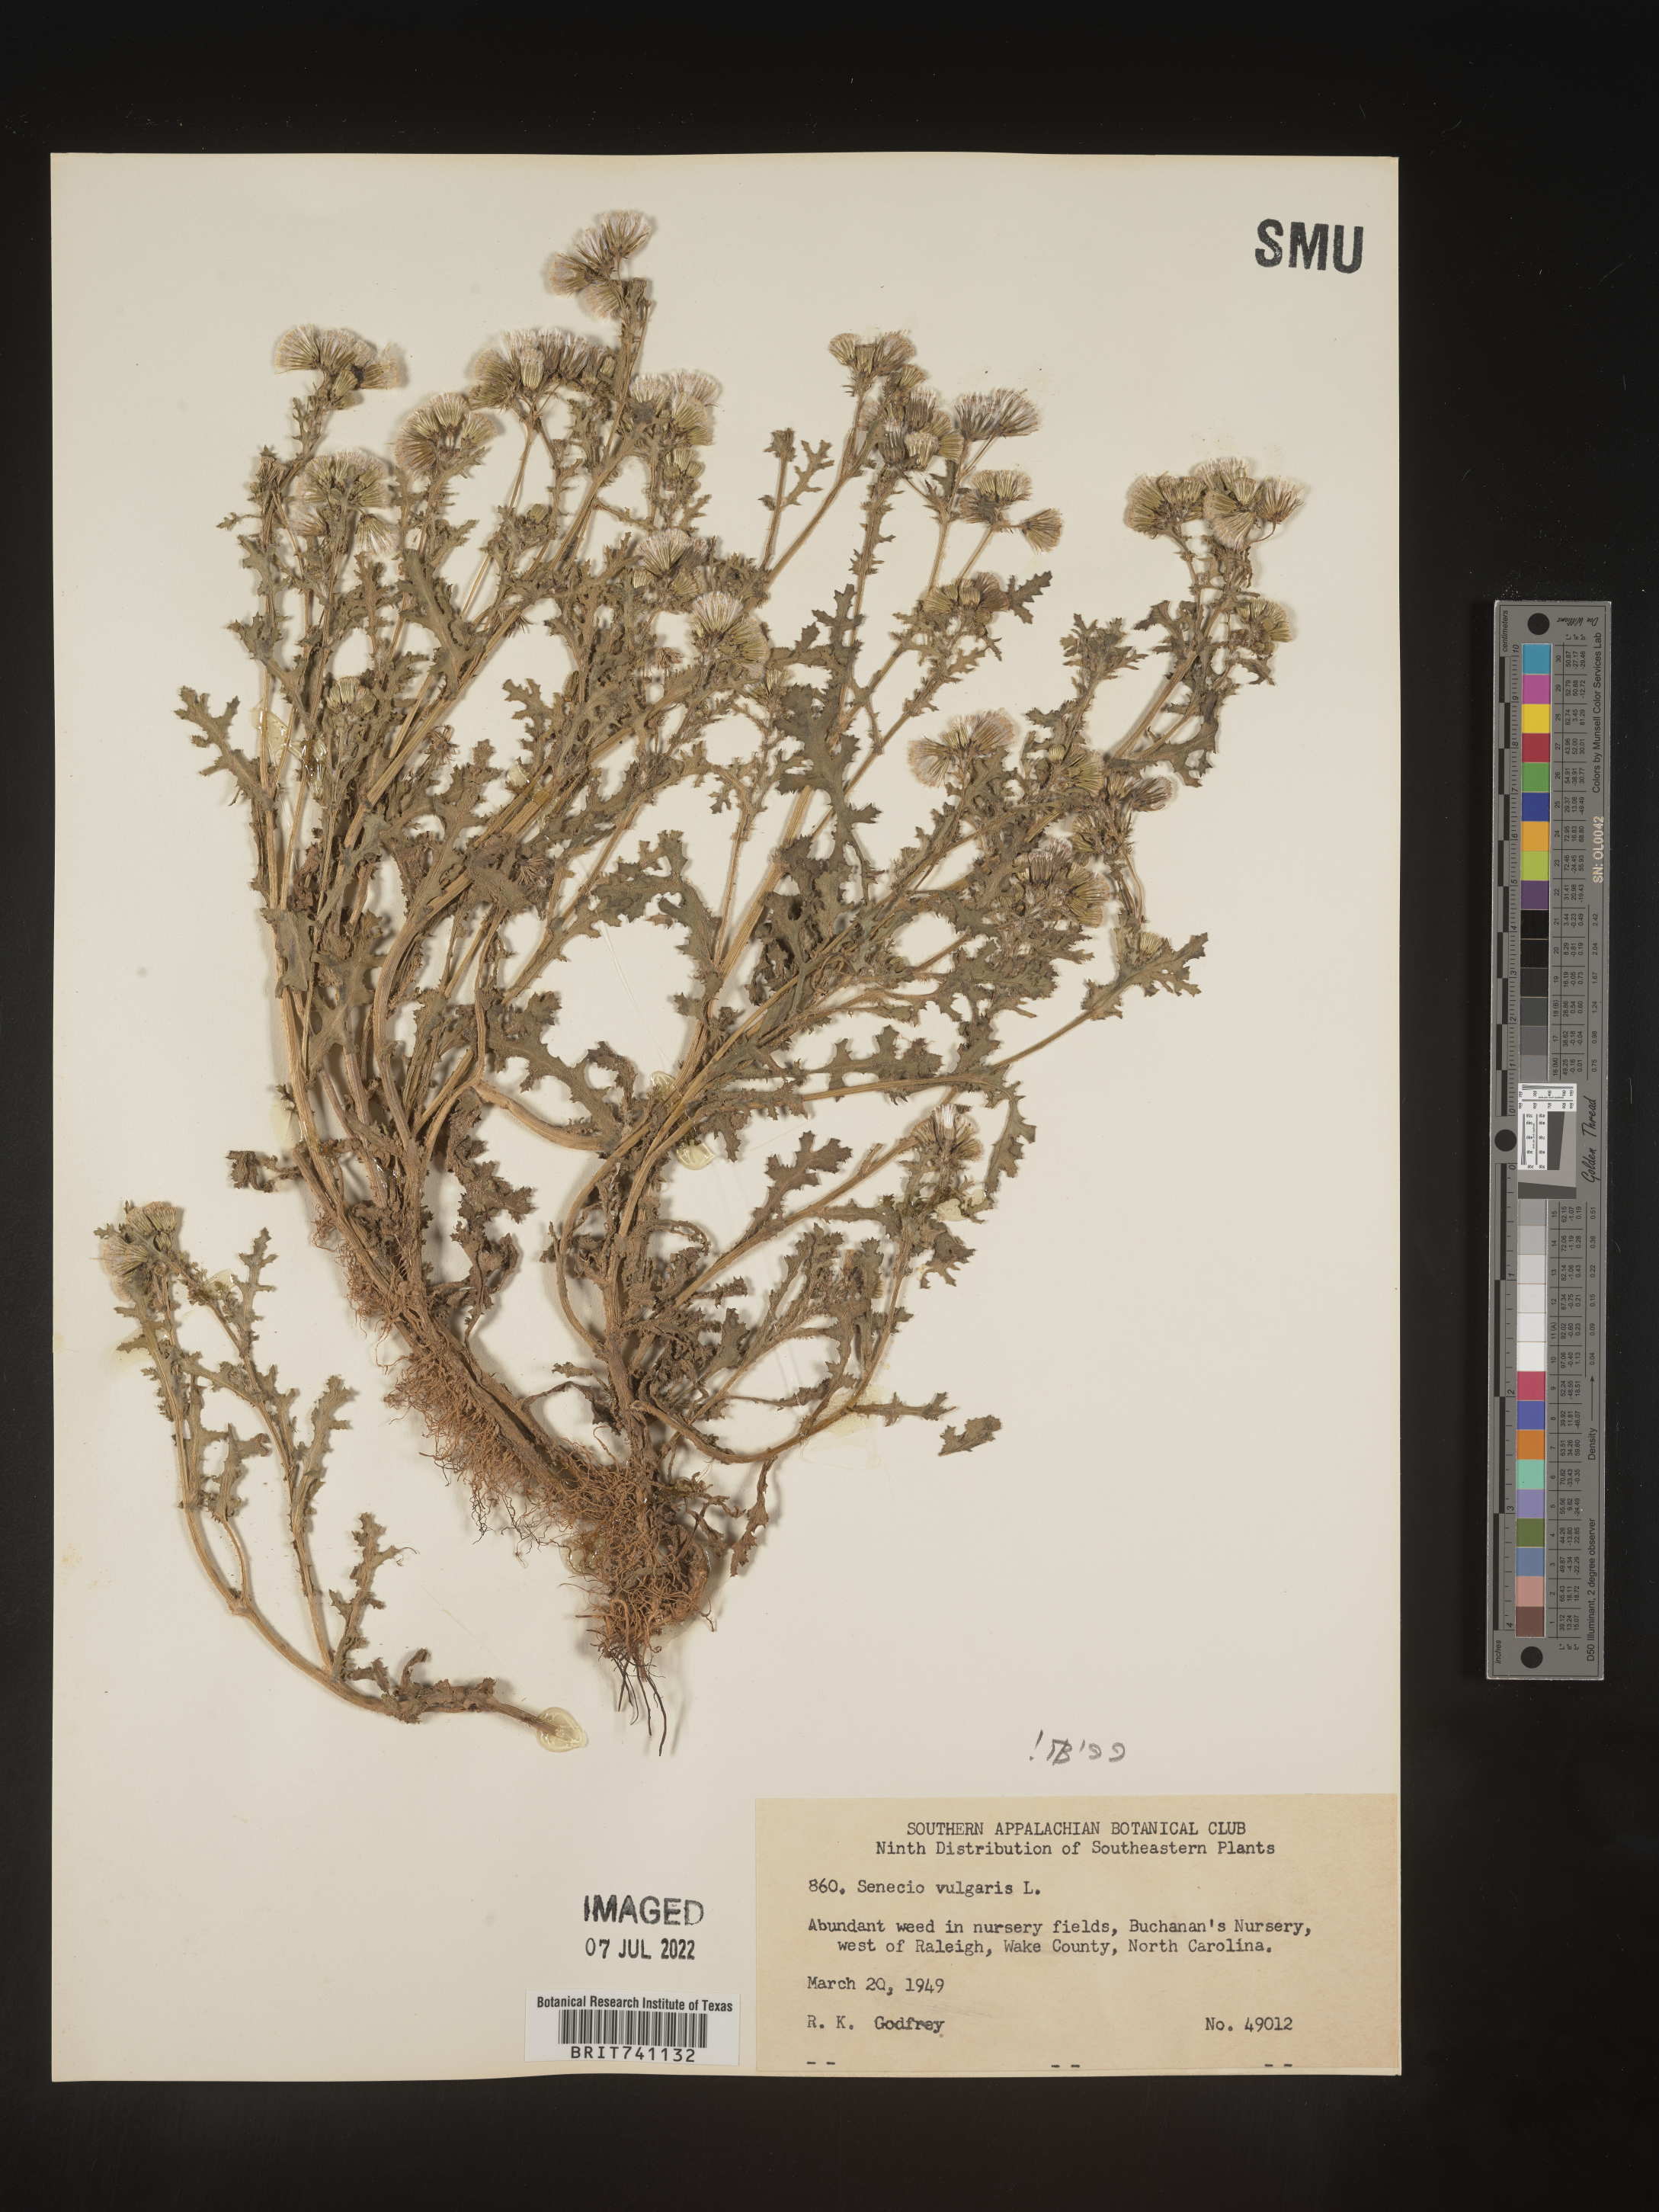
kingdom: Plantae
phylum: Tracheophyta
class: Magnoliopsida
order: Asterales
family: Asteraceae
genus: Senecio
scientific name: Senecio vulgaris
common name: Old-man-in-the-spring
